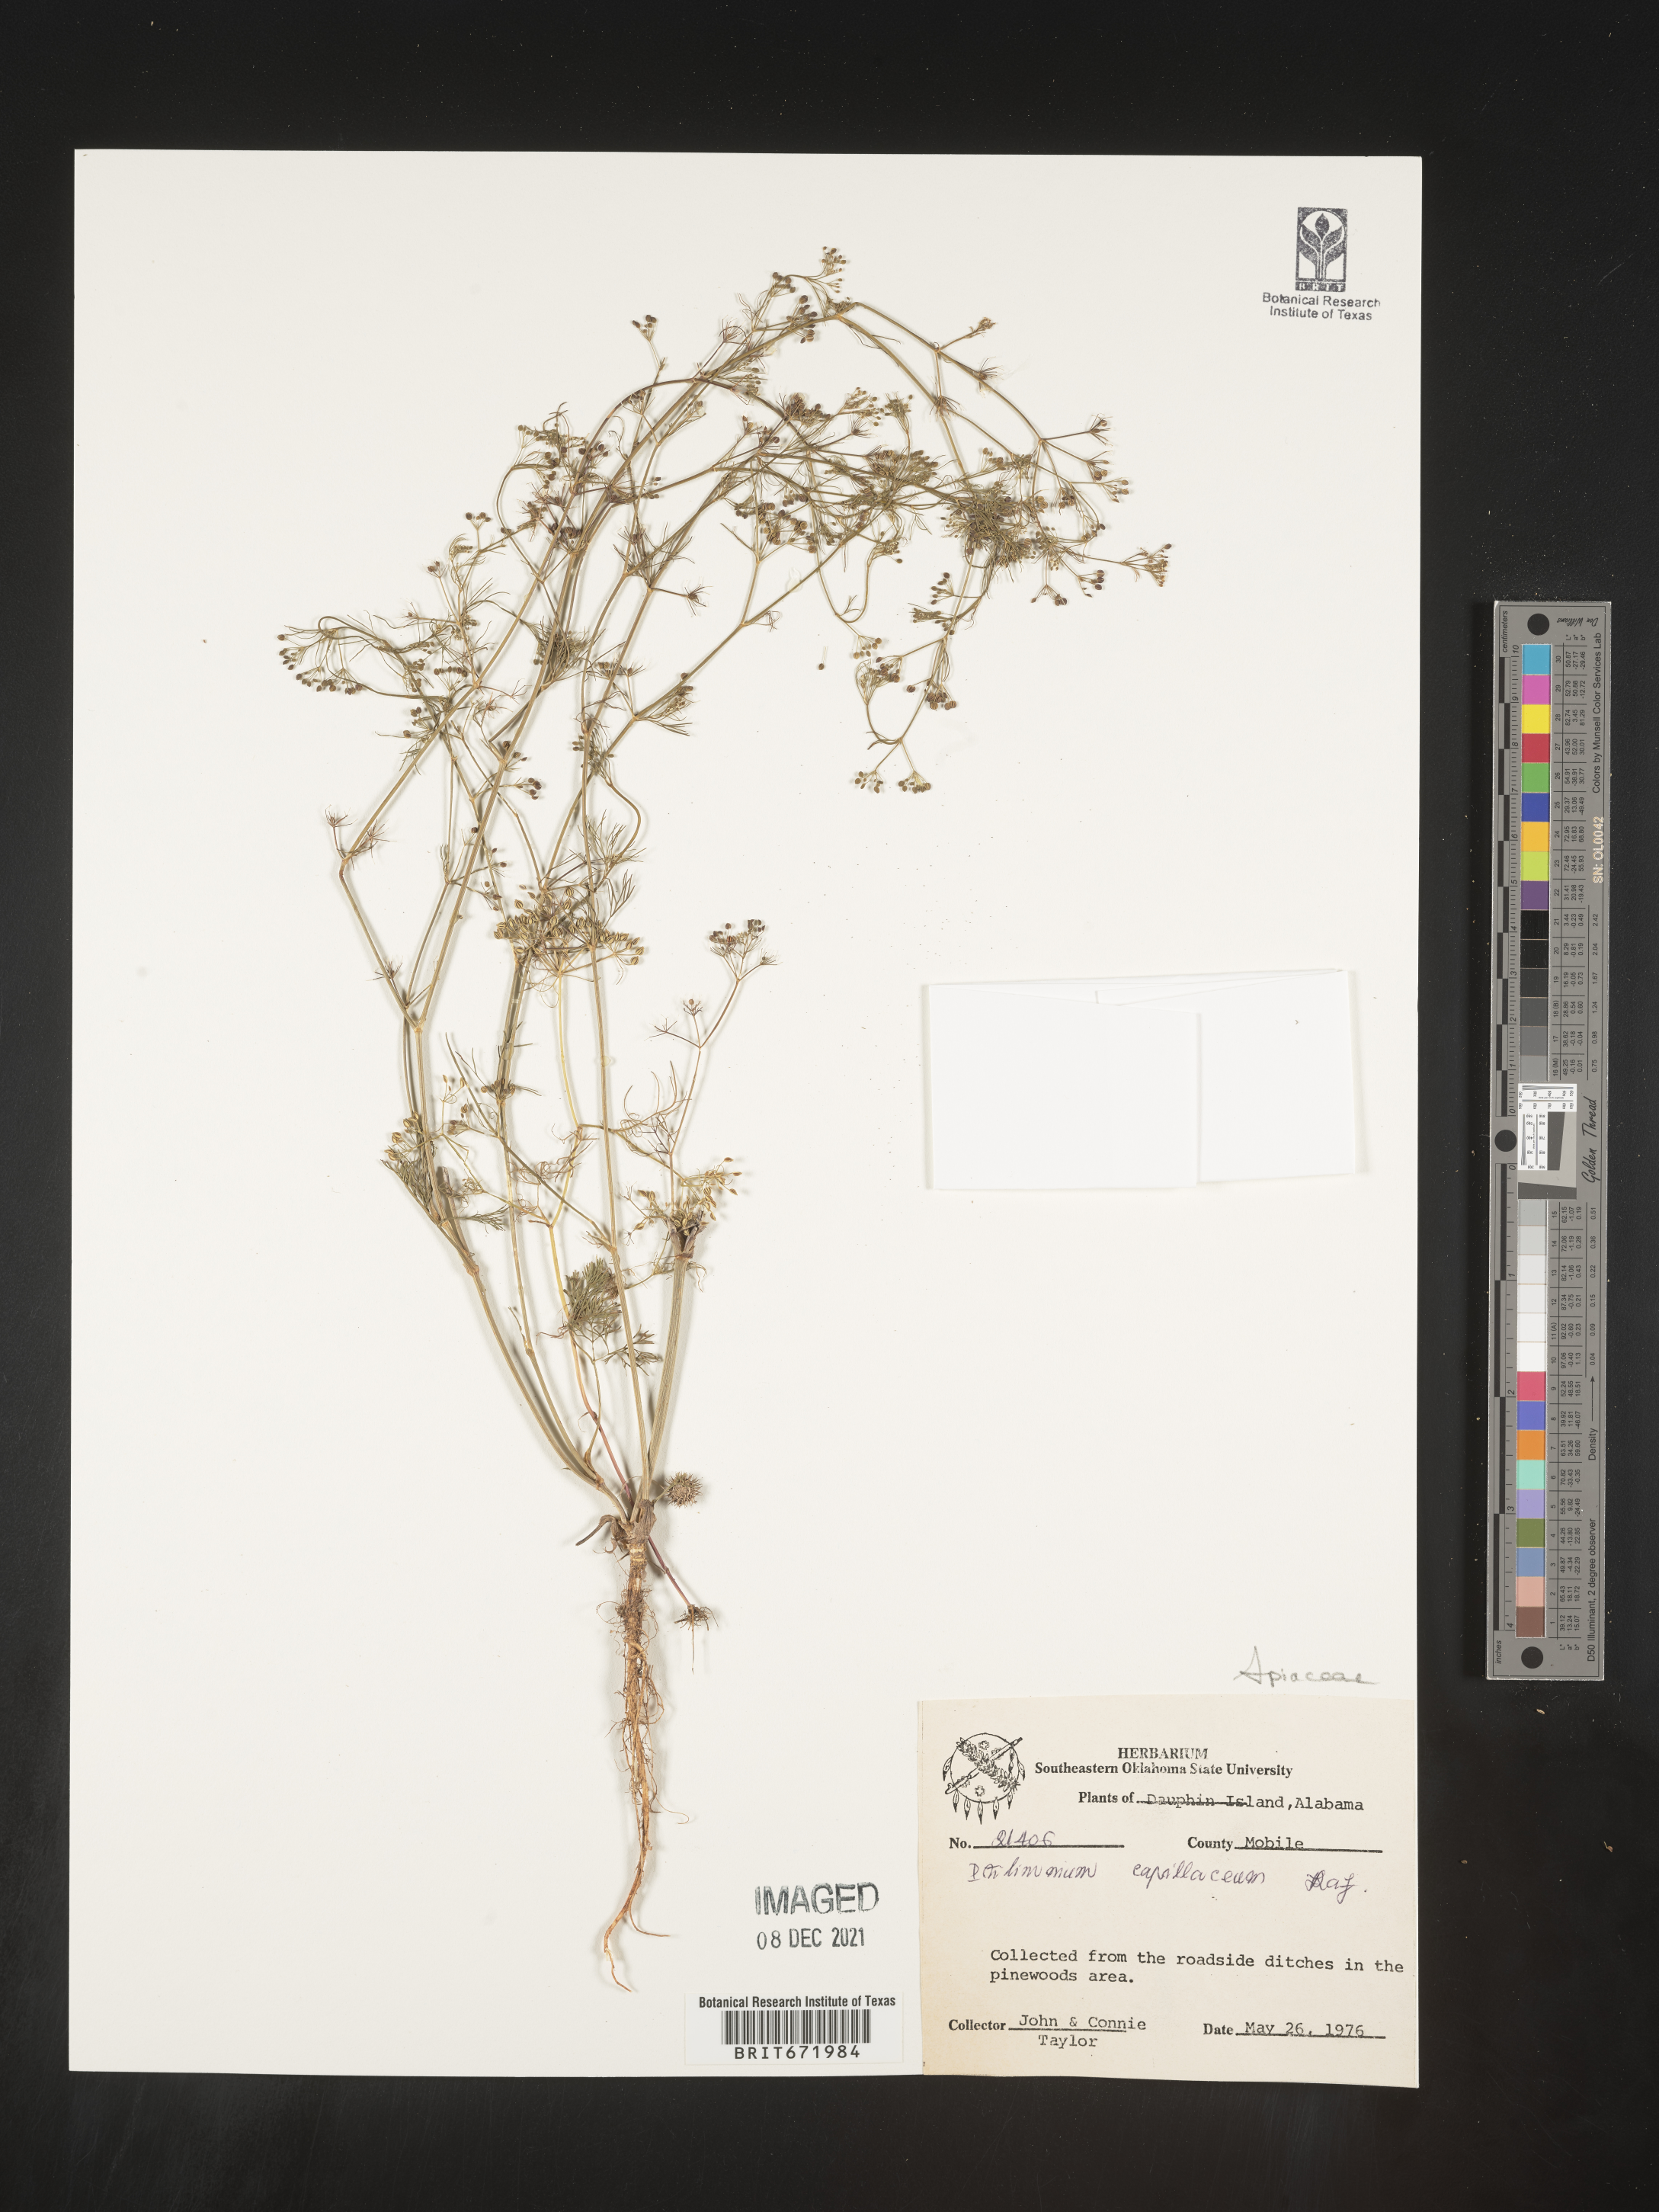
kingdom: Plantae
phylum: Tracheophyta
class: Magnoliopsida
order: Apiales
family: Apiaceae
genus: Ptilimnium
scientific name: Ptilimnium capillaceum
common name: Herbwilliam
